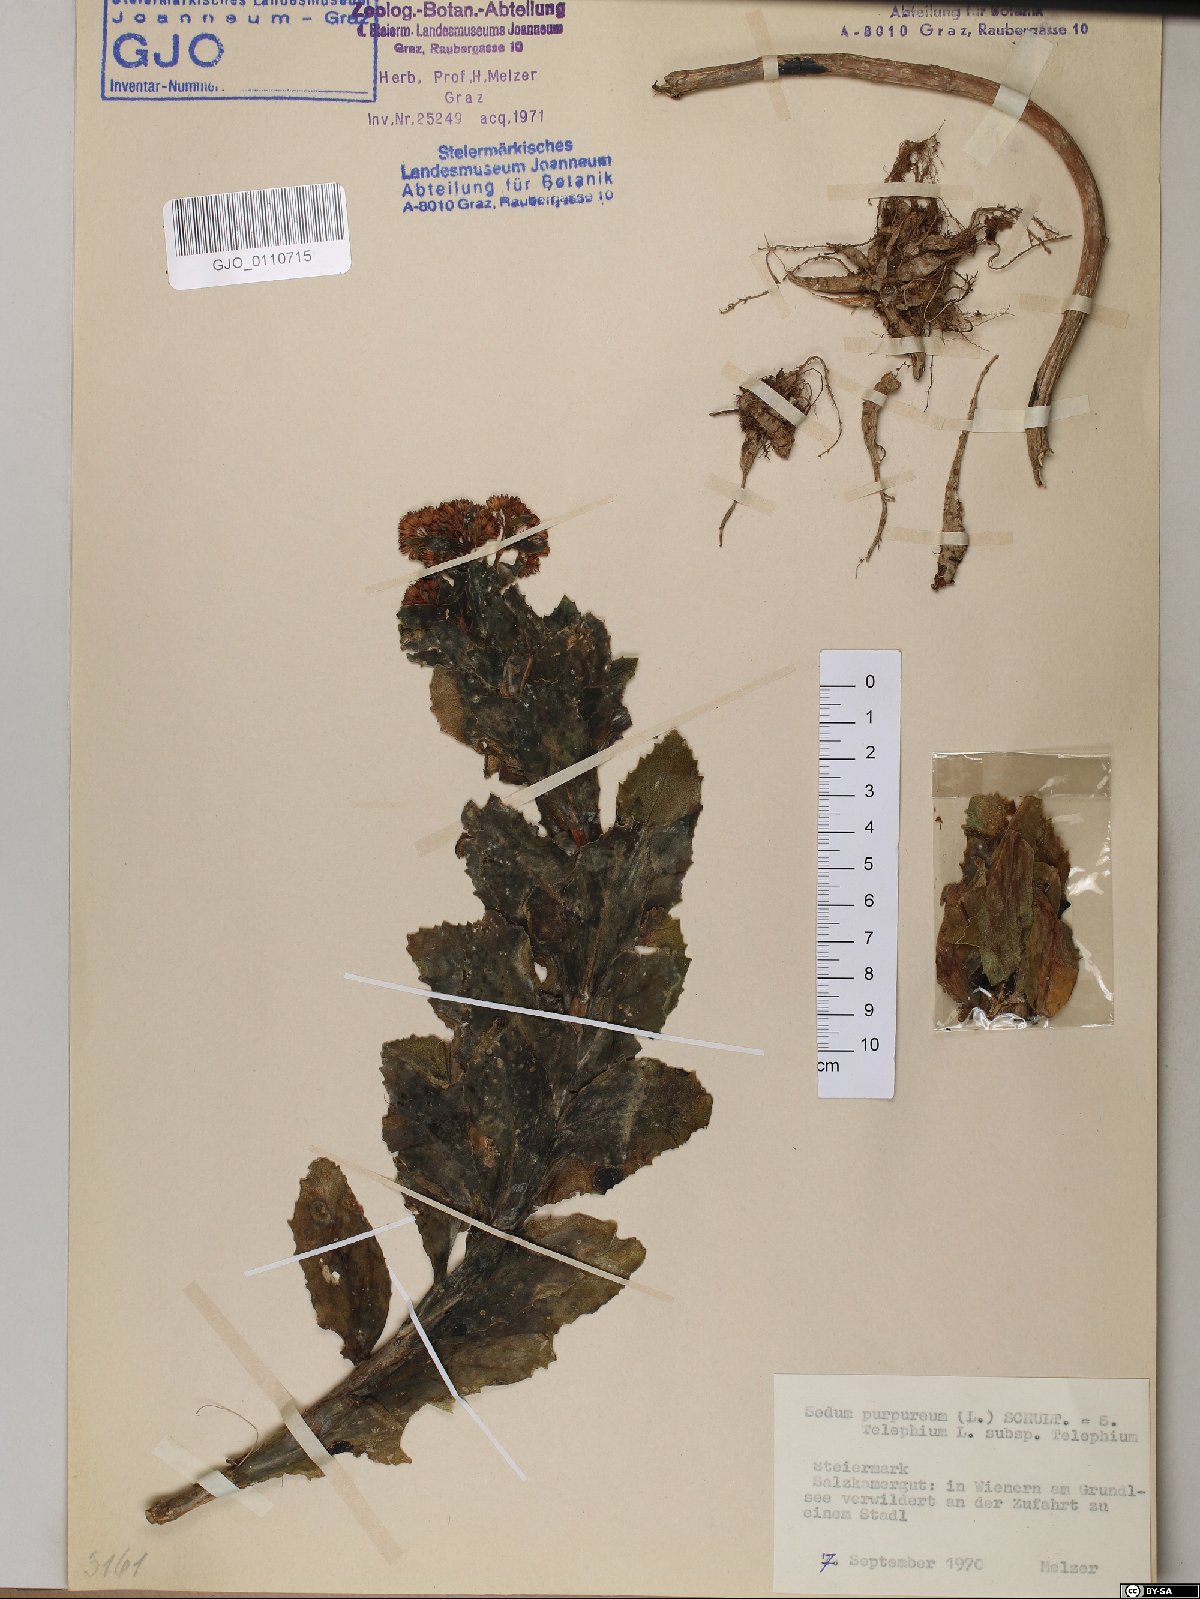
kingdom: Plantae
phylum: Tracheophyta
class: Magnoliopsida
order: Saxifragales
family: Crassulaceae
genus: Hylotelephium
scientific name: Hylotelephium telephium
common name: Live-forever
